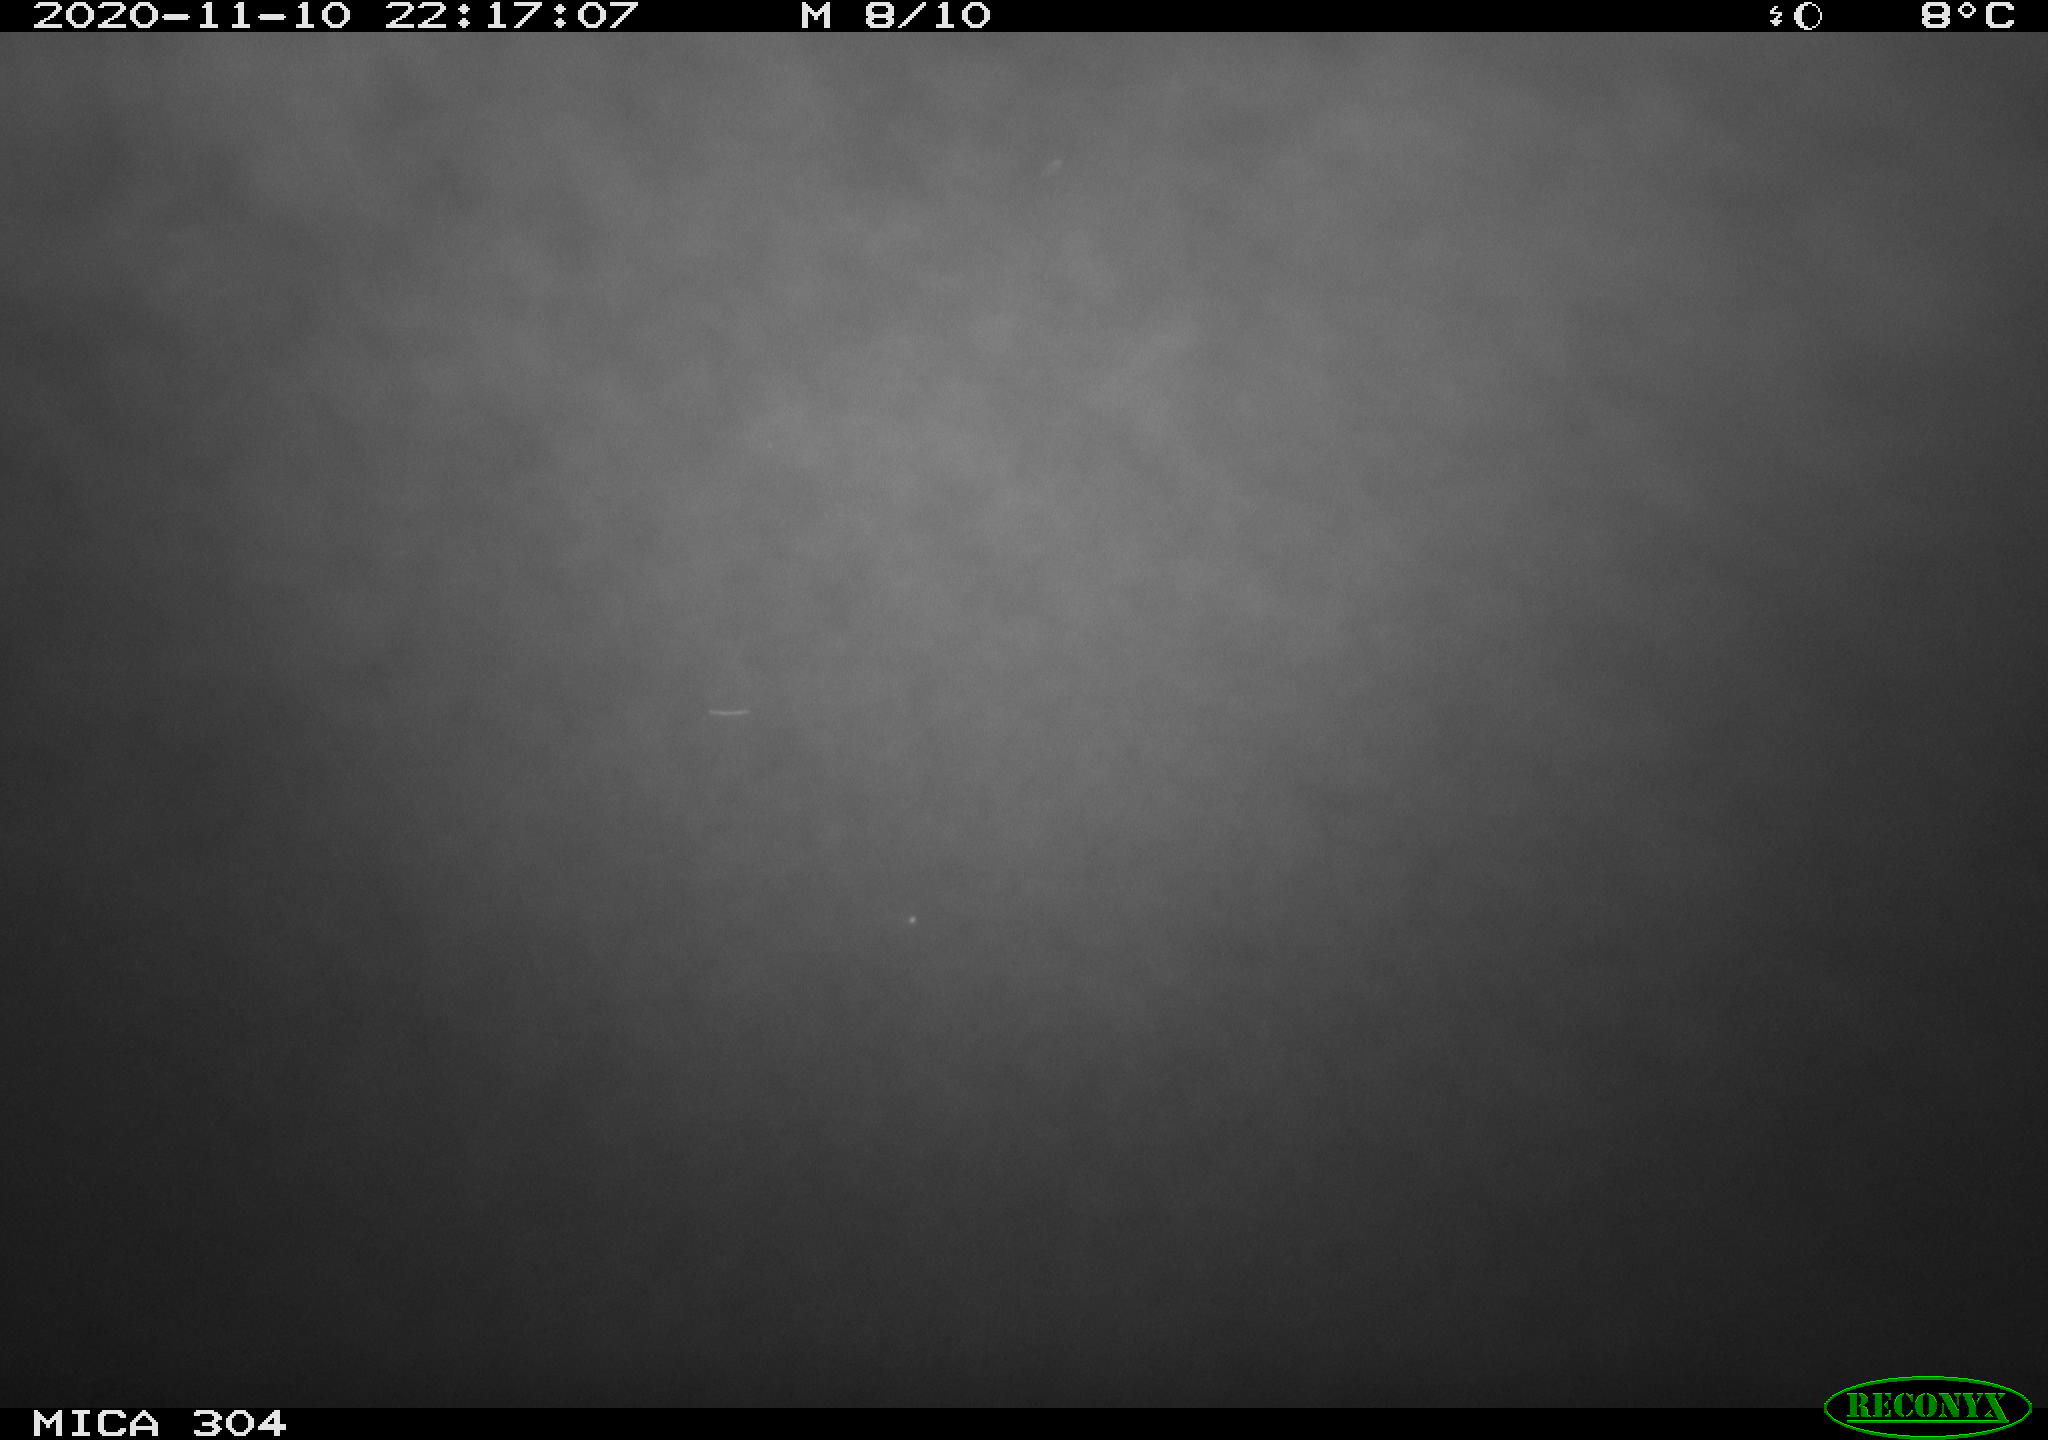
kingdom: Animalia
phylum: Chordata
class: Mammalia
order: Rodentia
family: Cricetidae
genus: Ondatra
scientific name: Ondatra zibethicus
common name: Muskrat
